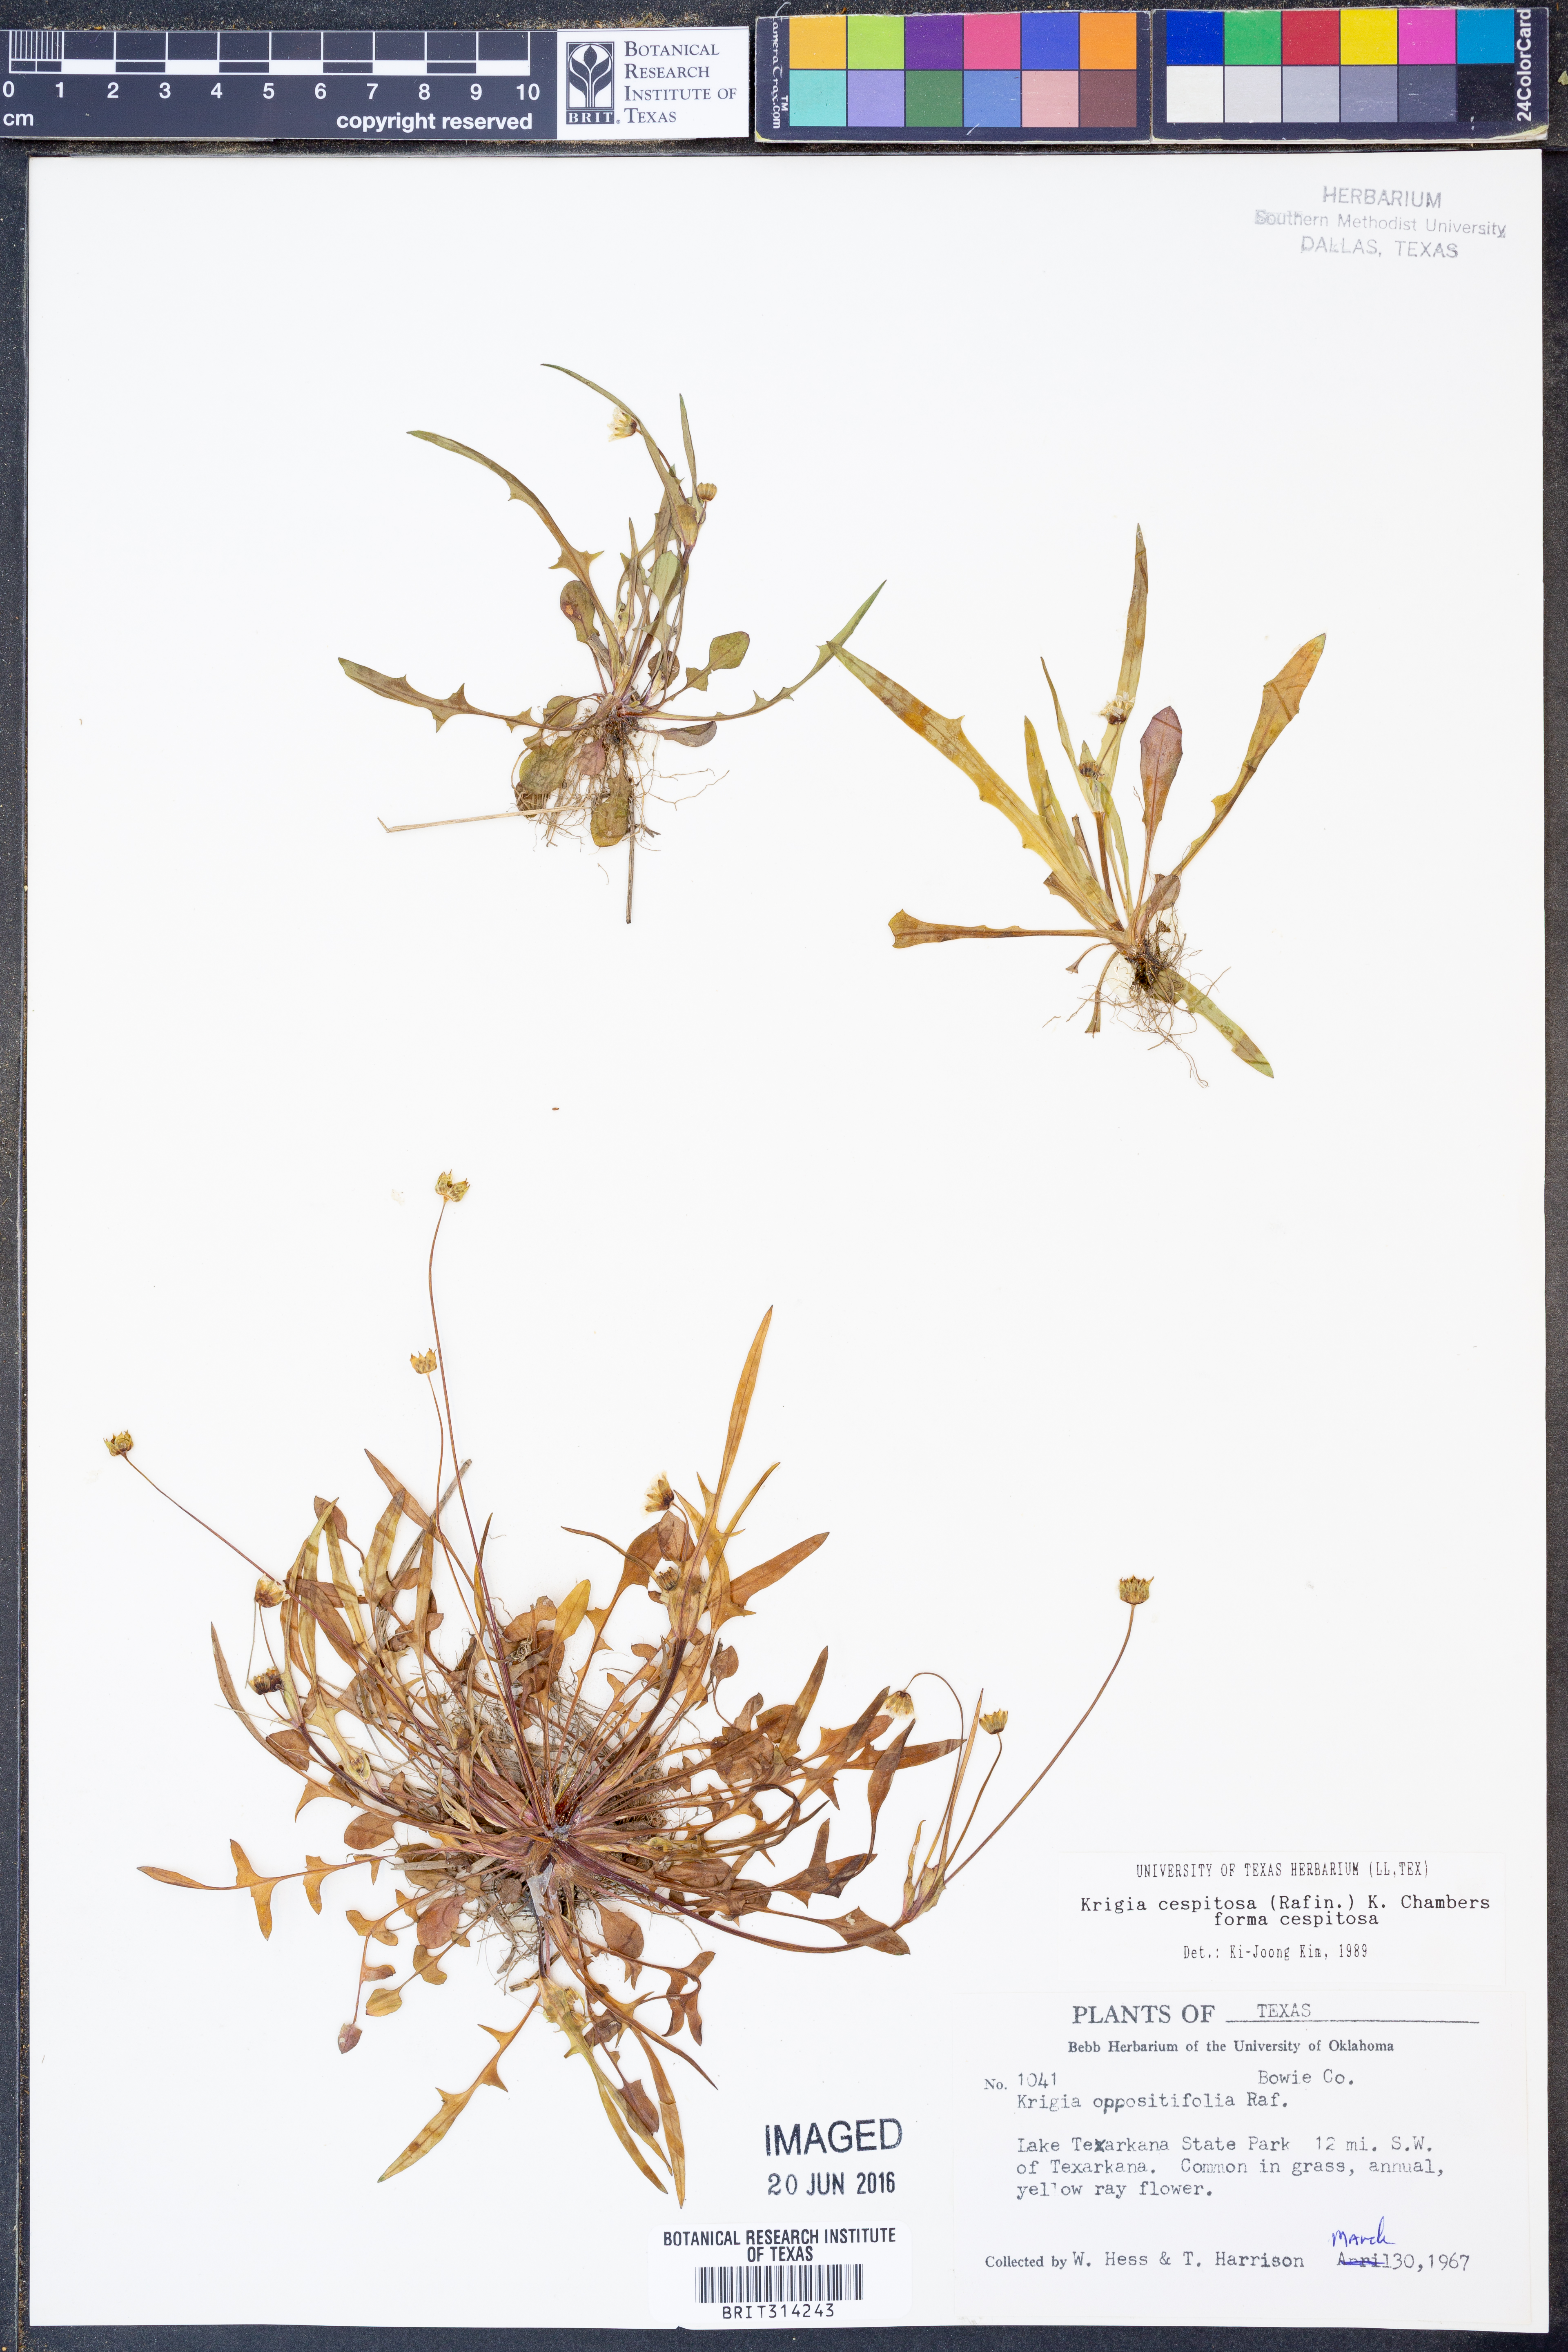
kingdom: Plantae
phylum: Tracheophyta
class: Magnoliopsida
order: Asterales
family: Asteraceae
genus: Krigia
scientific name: Krigia cespitosa
